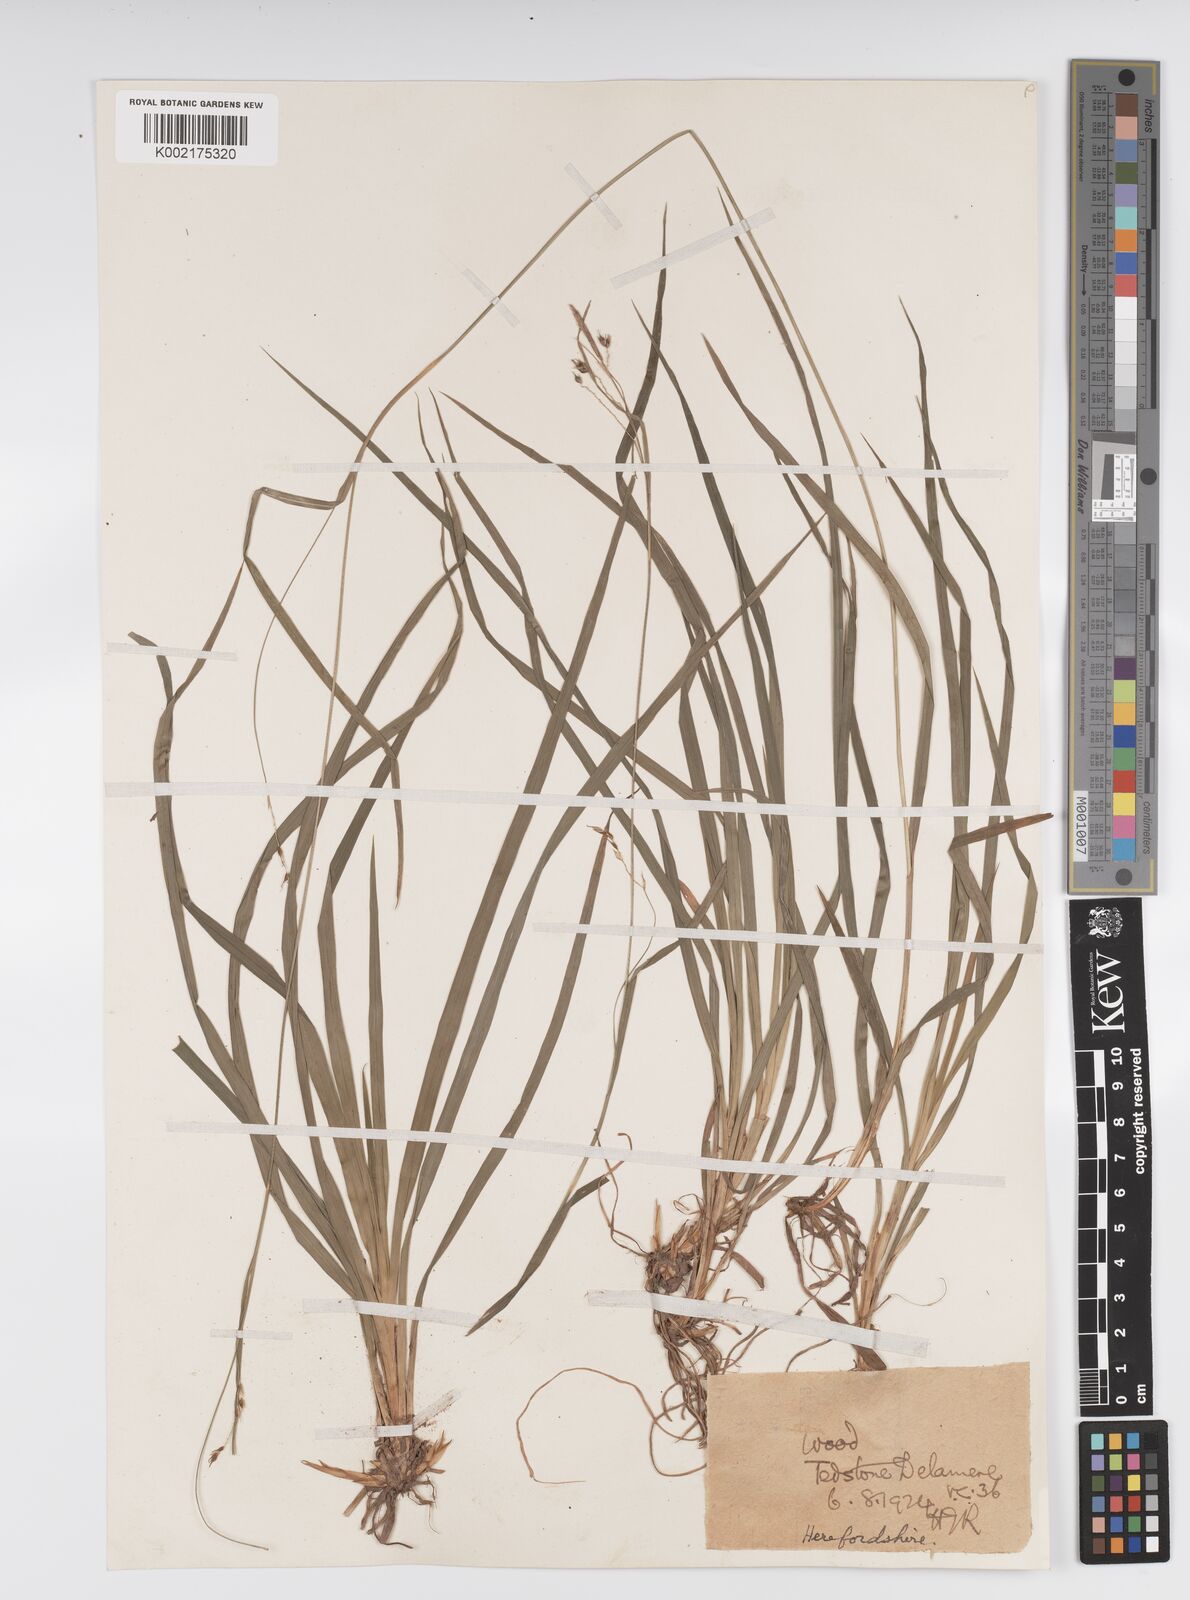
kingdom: Plantae
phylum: Tracheophyta
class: Liliopsida
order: Poales
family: Cyperaceae
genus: Carex
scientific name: Carex sylvatica
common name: Wood-sedge
